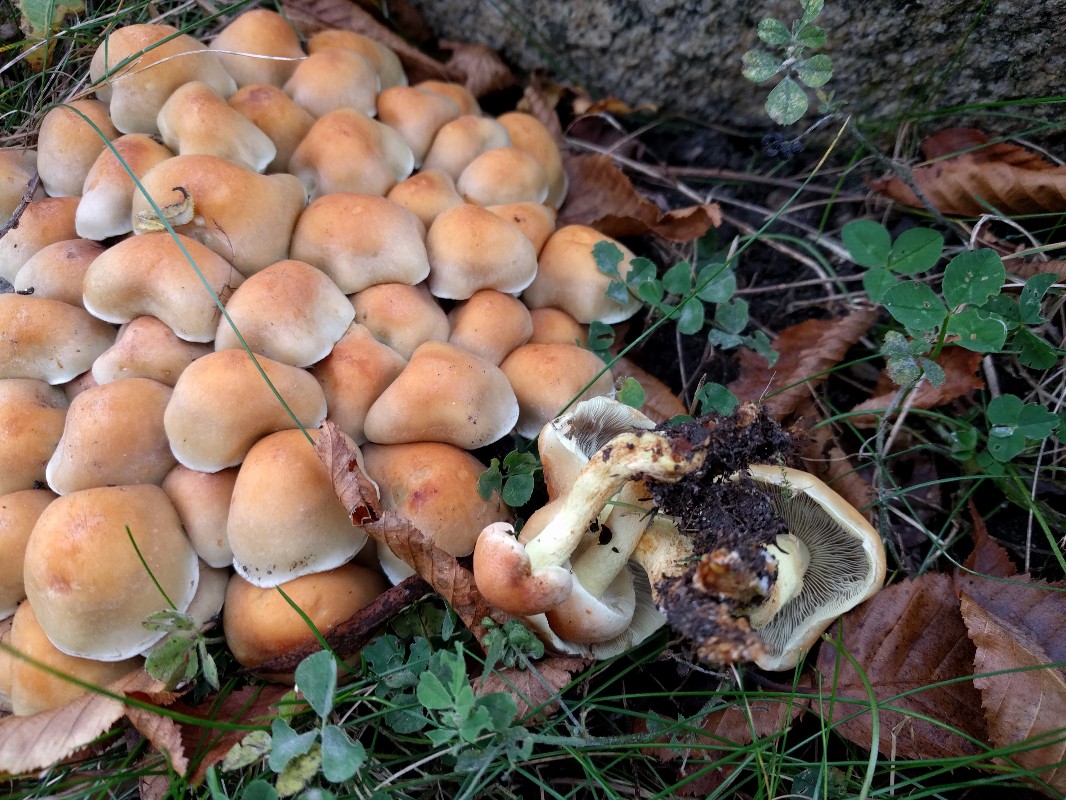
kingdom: Fungi
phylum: Basidiomycota
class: Agaricomycetes
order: Agaricales
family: Strophariaceae
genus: Hypholoma
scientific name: Hypholoma fasciculare
